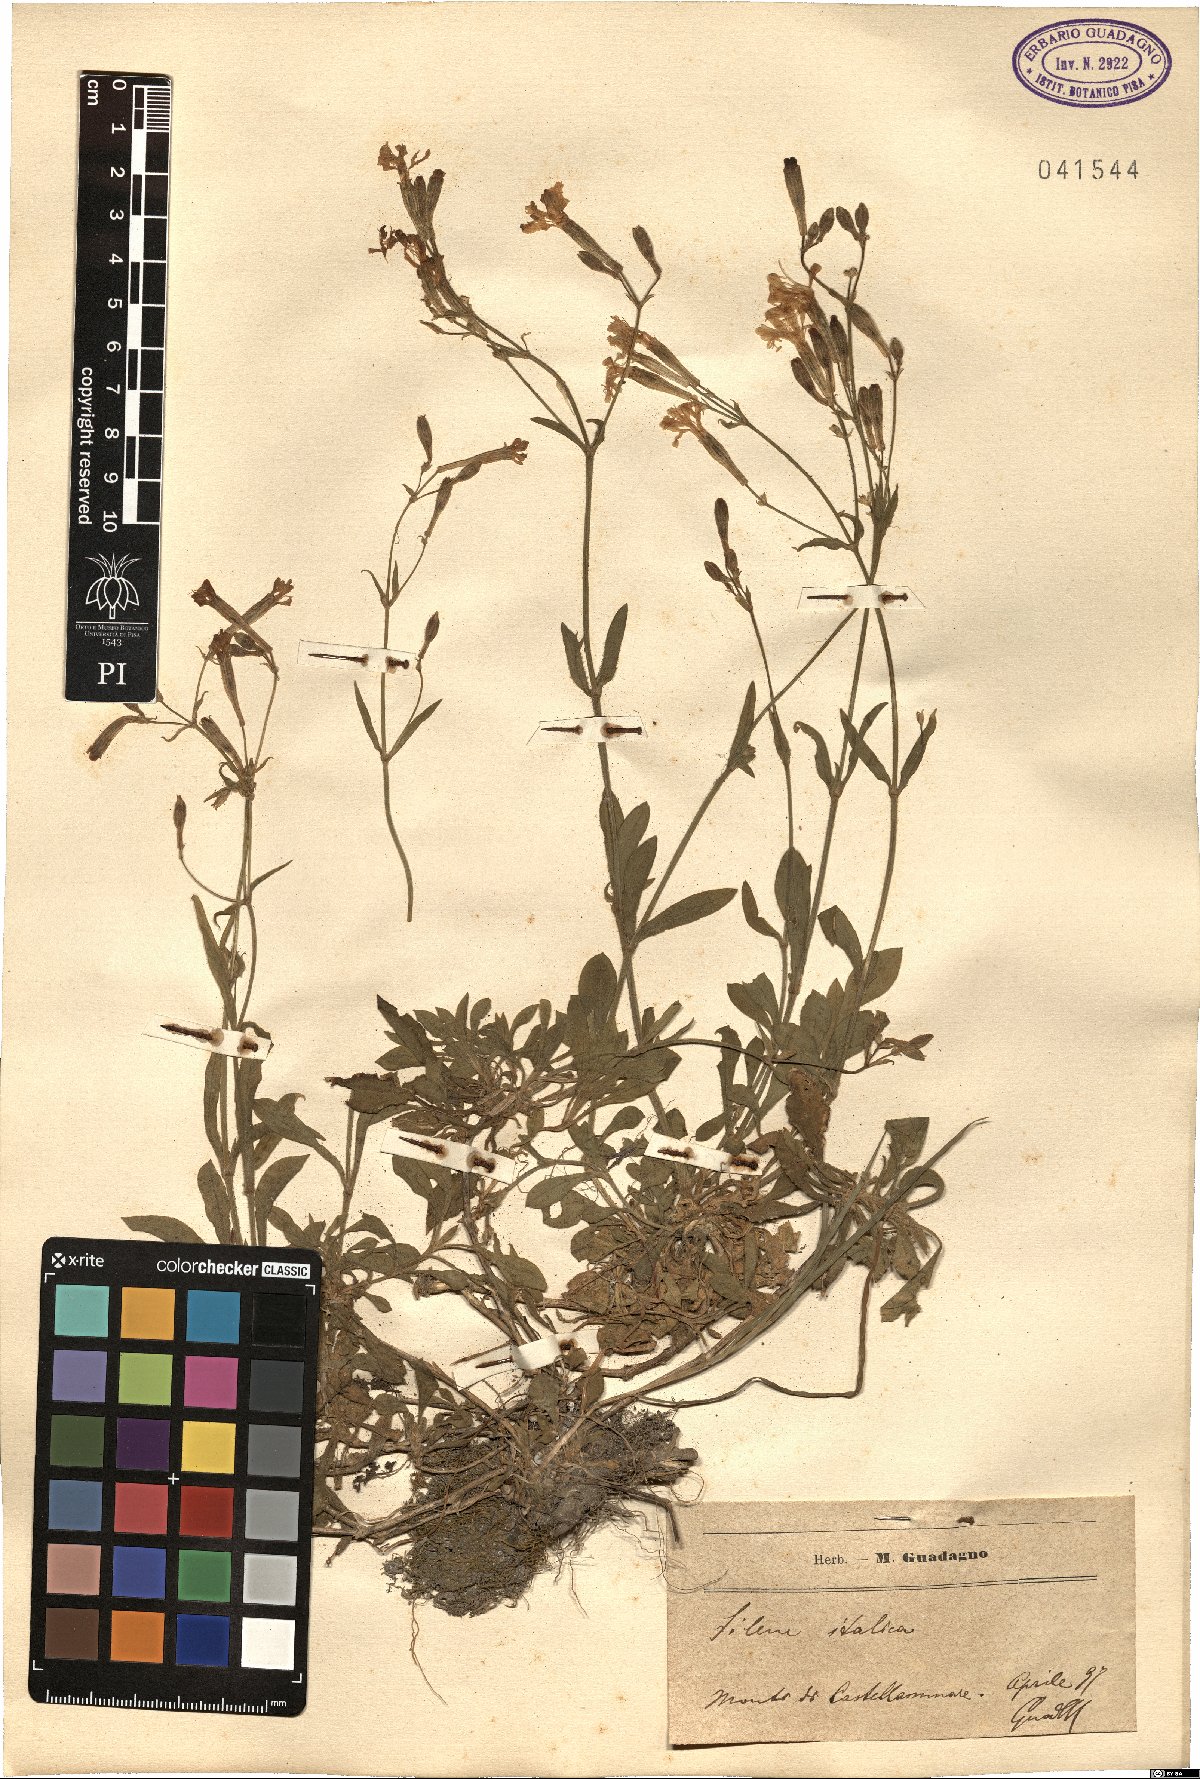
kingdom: Plantae
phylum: Tracheophyta
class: Magnoliopsida
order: Caryophyllales
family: Caryophyllaceae
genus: Silene
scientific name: Silene italica
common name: Italian catchfly
